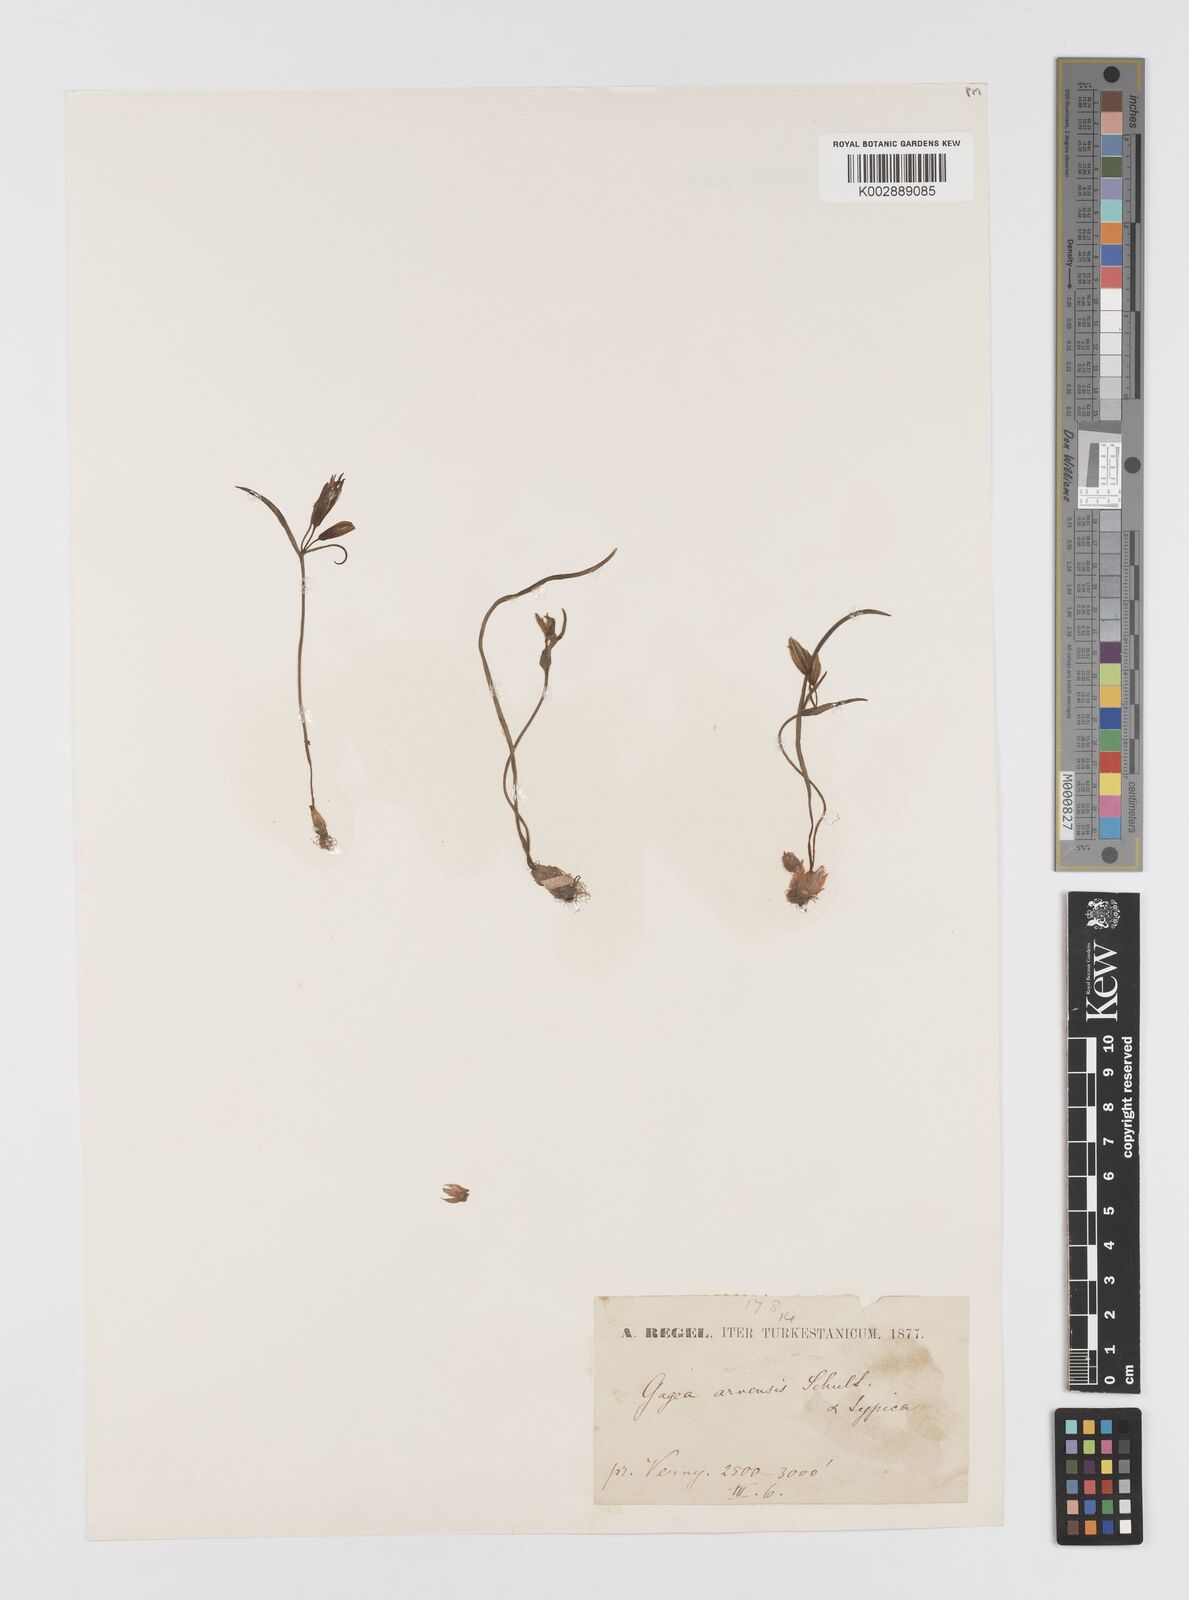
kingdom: Plantae
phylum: Tracheophyta
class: Liliopsida
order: Liliales
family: Liliaceae
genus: Gagea
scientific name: Gagea minima
